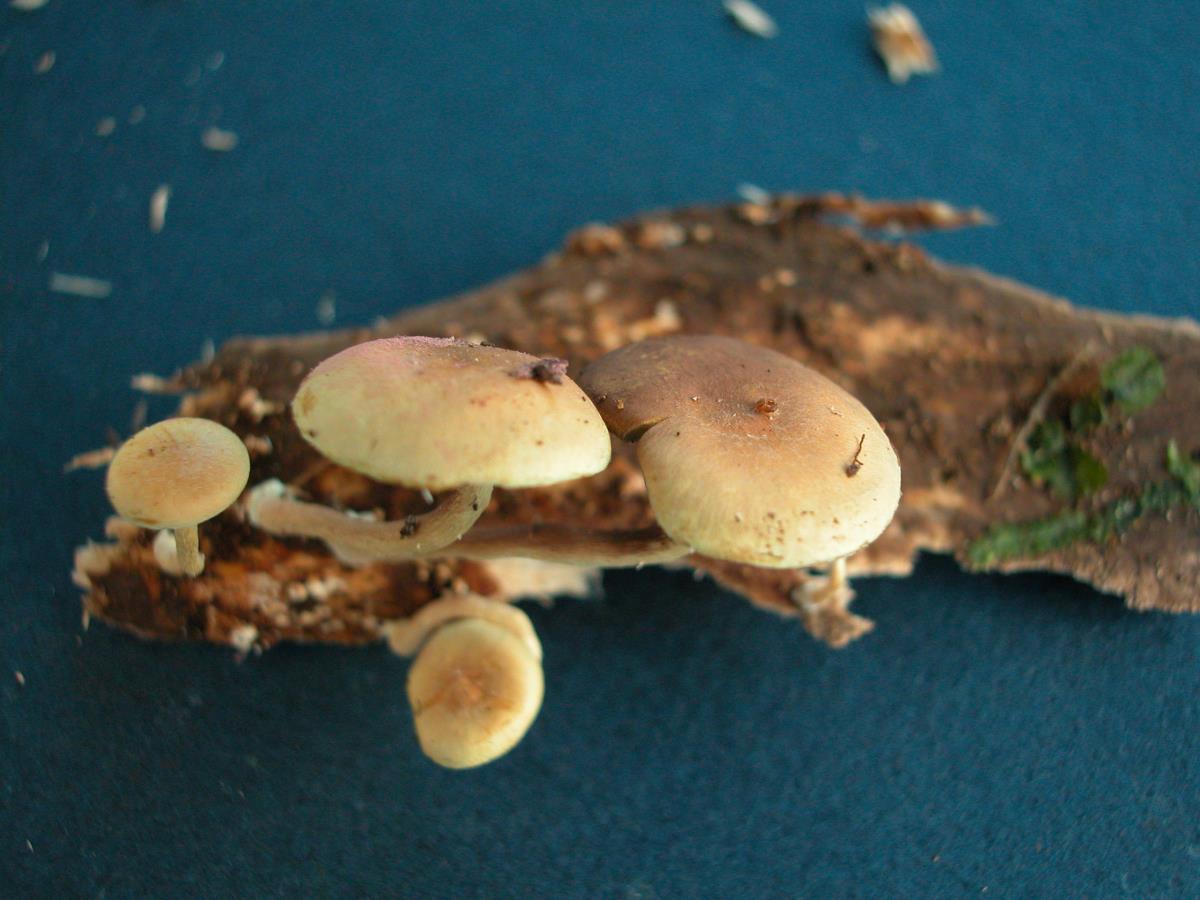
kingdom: Fungi
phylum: Basidiomycota
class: Agaricomycetes
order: Agaricales
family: Strophariaceae
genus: Hypholoma
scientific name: Hypholoma
